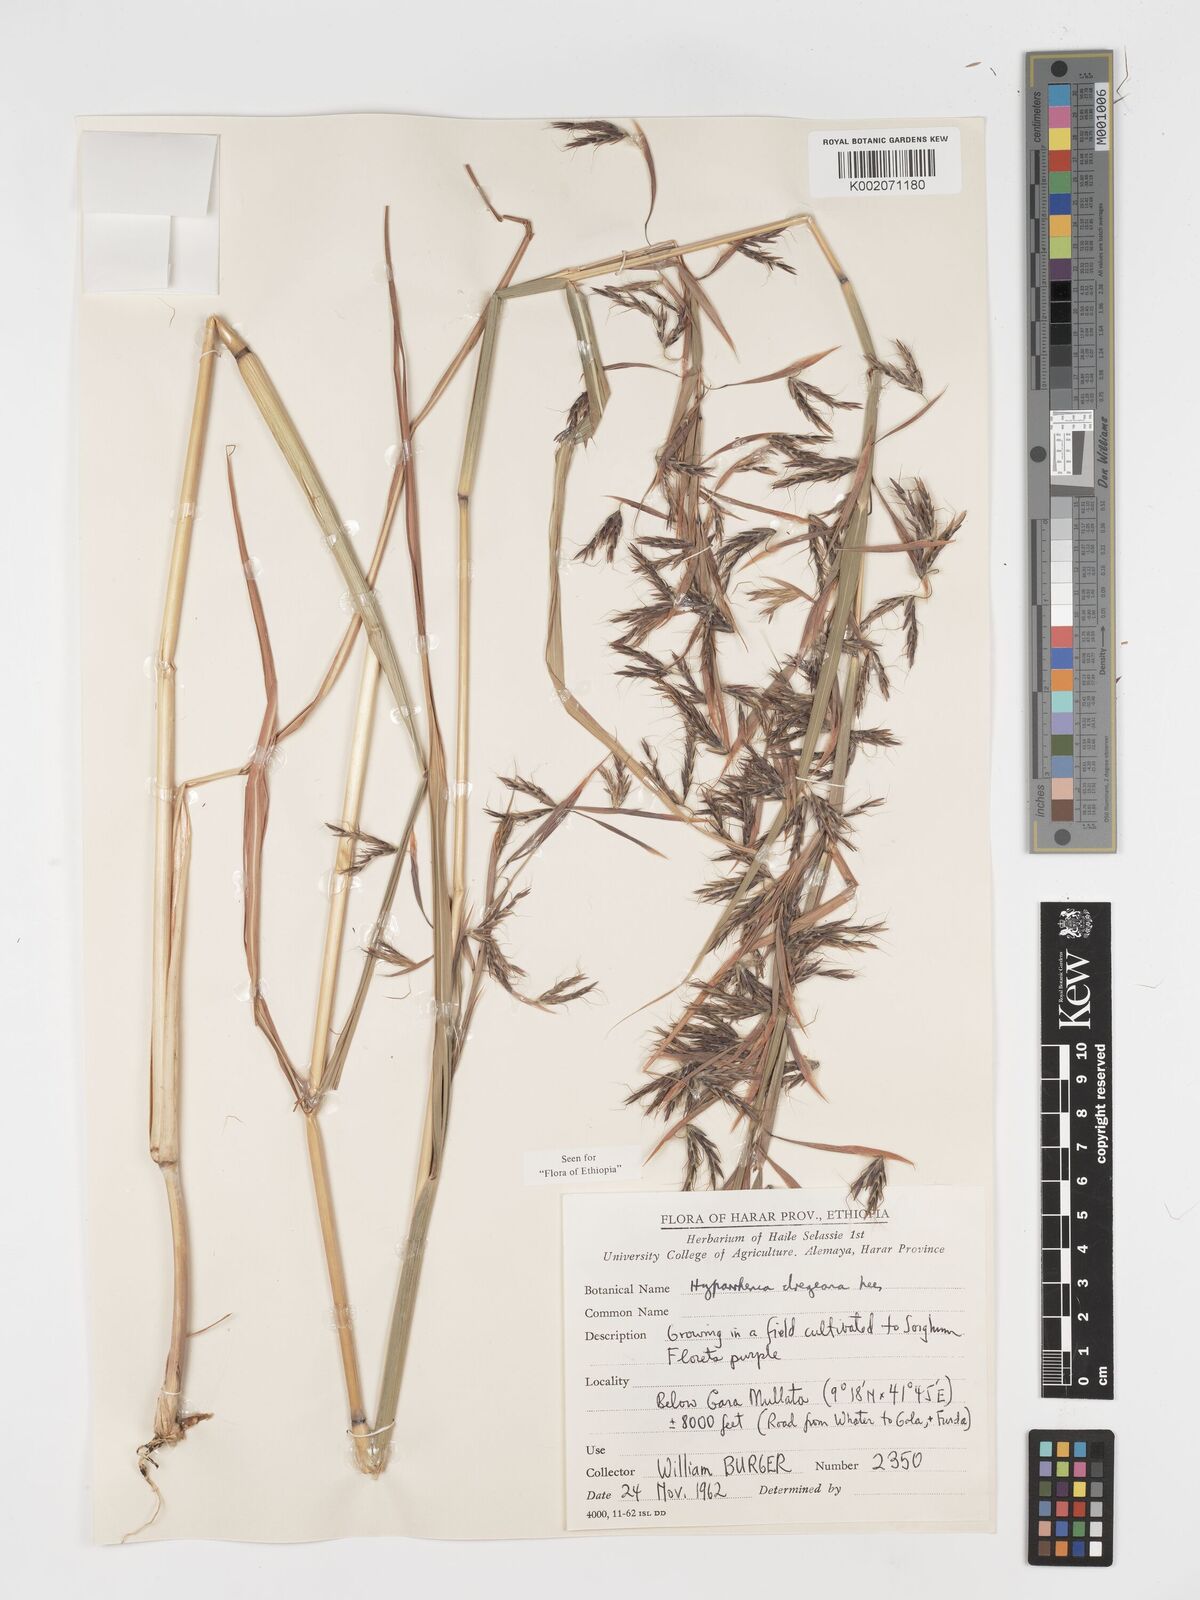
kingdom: Plantae
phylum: Tracheophyta
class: Liliopsida
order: Poales
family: Poaceae
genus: Hyparrhenia
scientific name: Hyparrhenia dregeana
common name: Silky thatching grass
